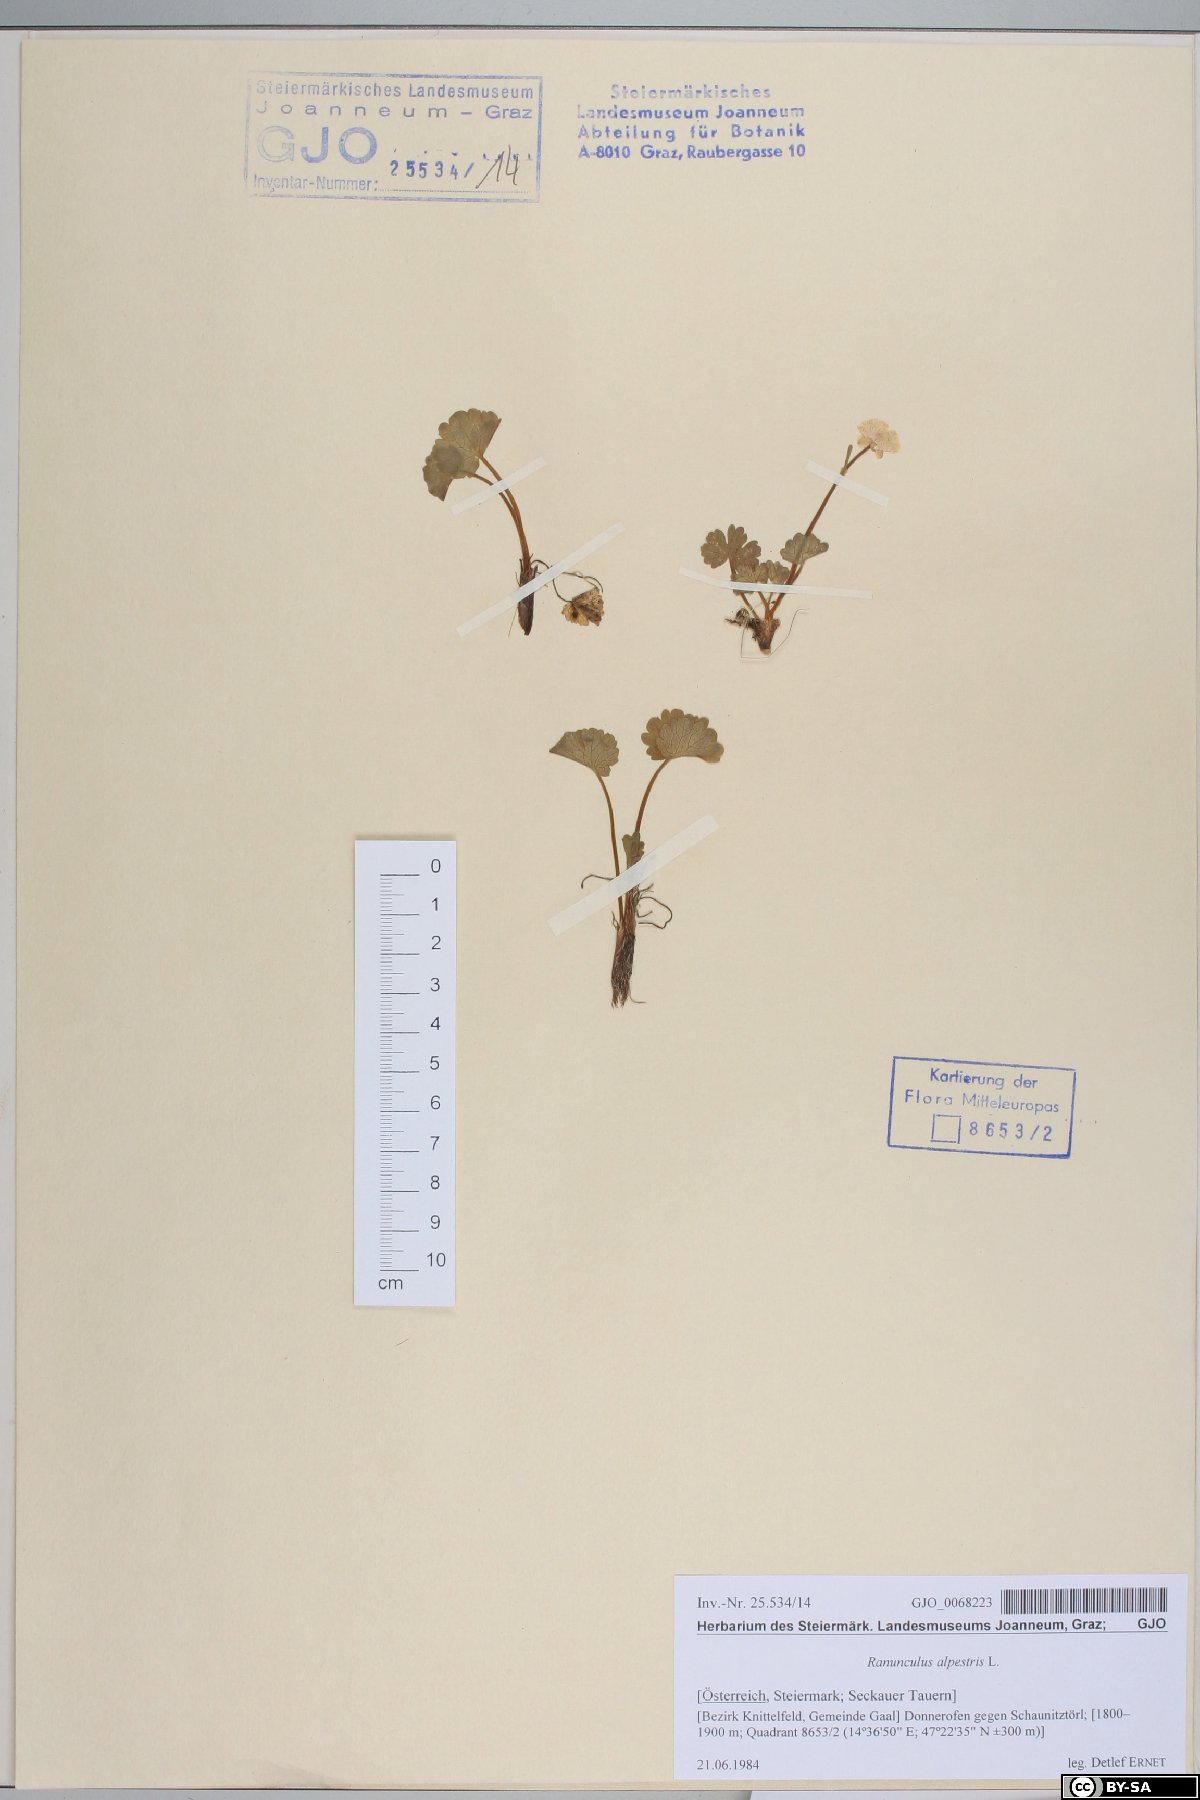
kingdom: Plantae
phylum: Tracheophyta
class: Magnoliopsida
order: Ranunculales
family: Ranunculaceae
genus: Ranunculus
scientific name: Ranunculus alpestris
